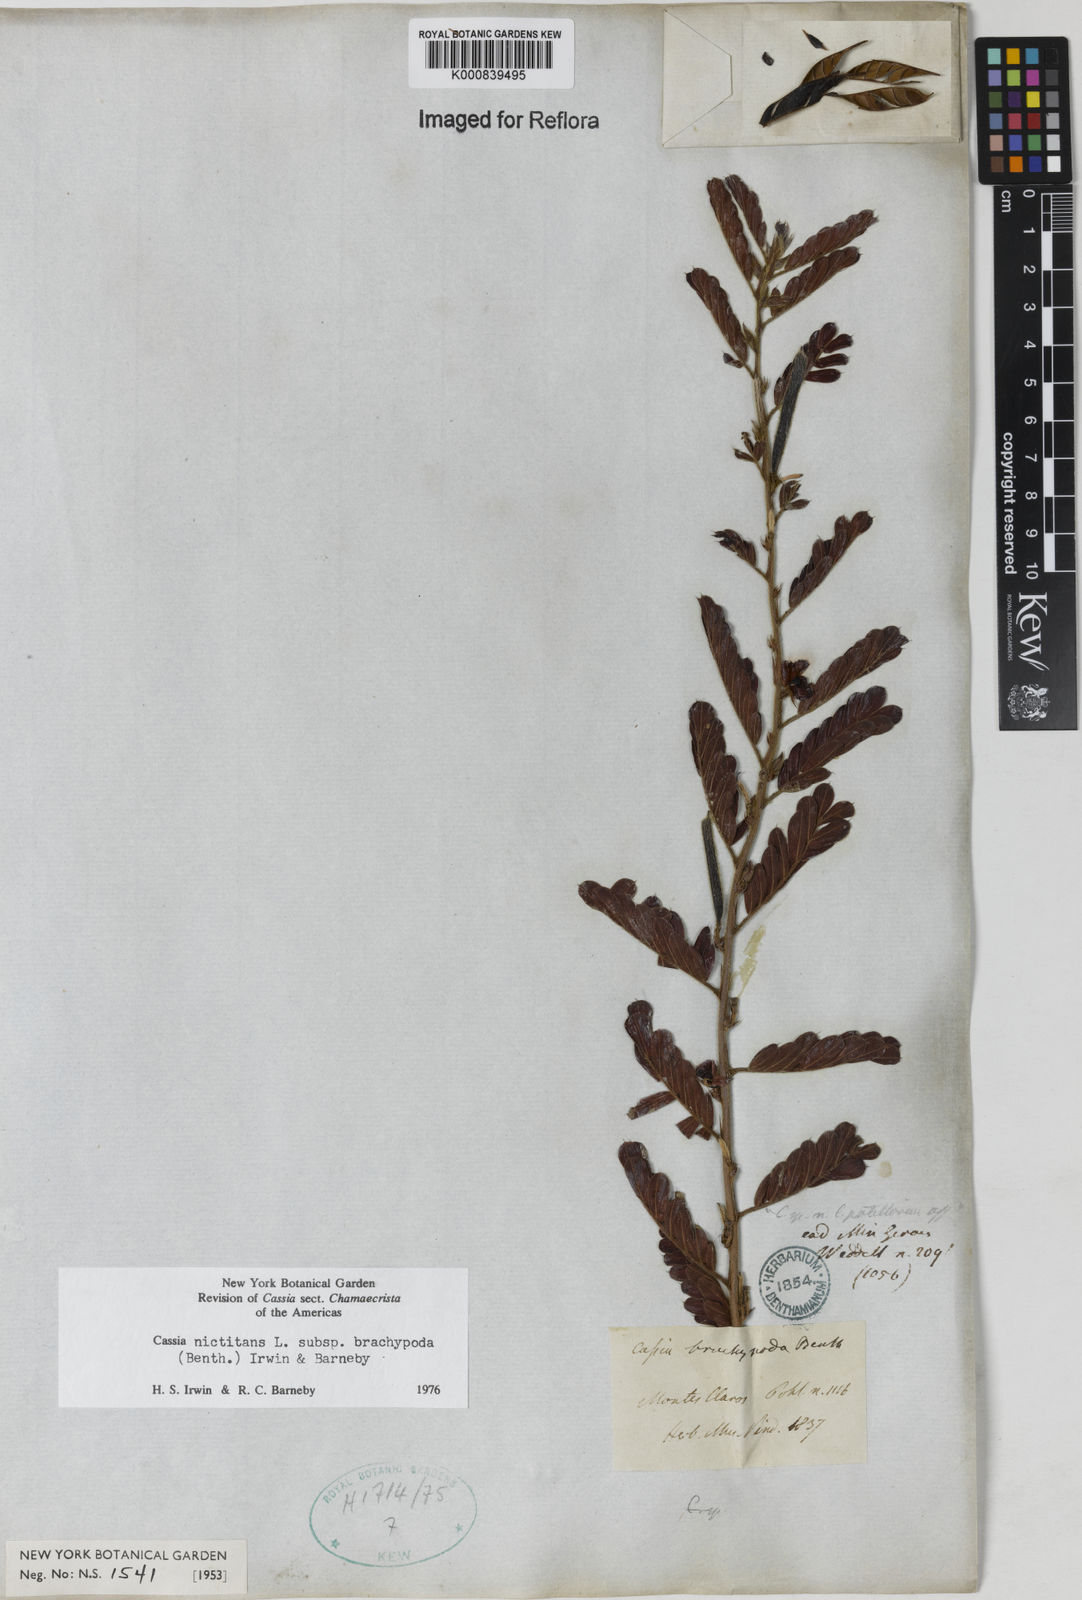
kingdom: Plantae
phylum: Tracheophyta
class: Magnoliopsida
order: Fabales
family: Fabaceae
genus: Chamaecrista
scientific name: Chamaecrista nictitans
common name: Sensitive cassia
